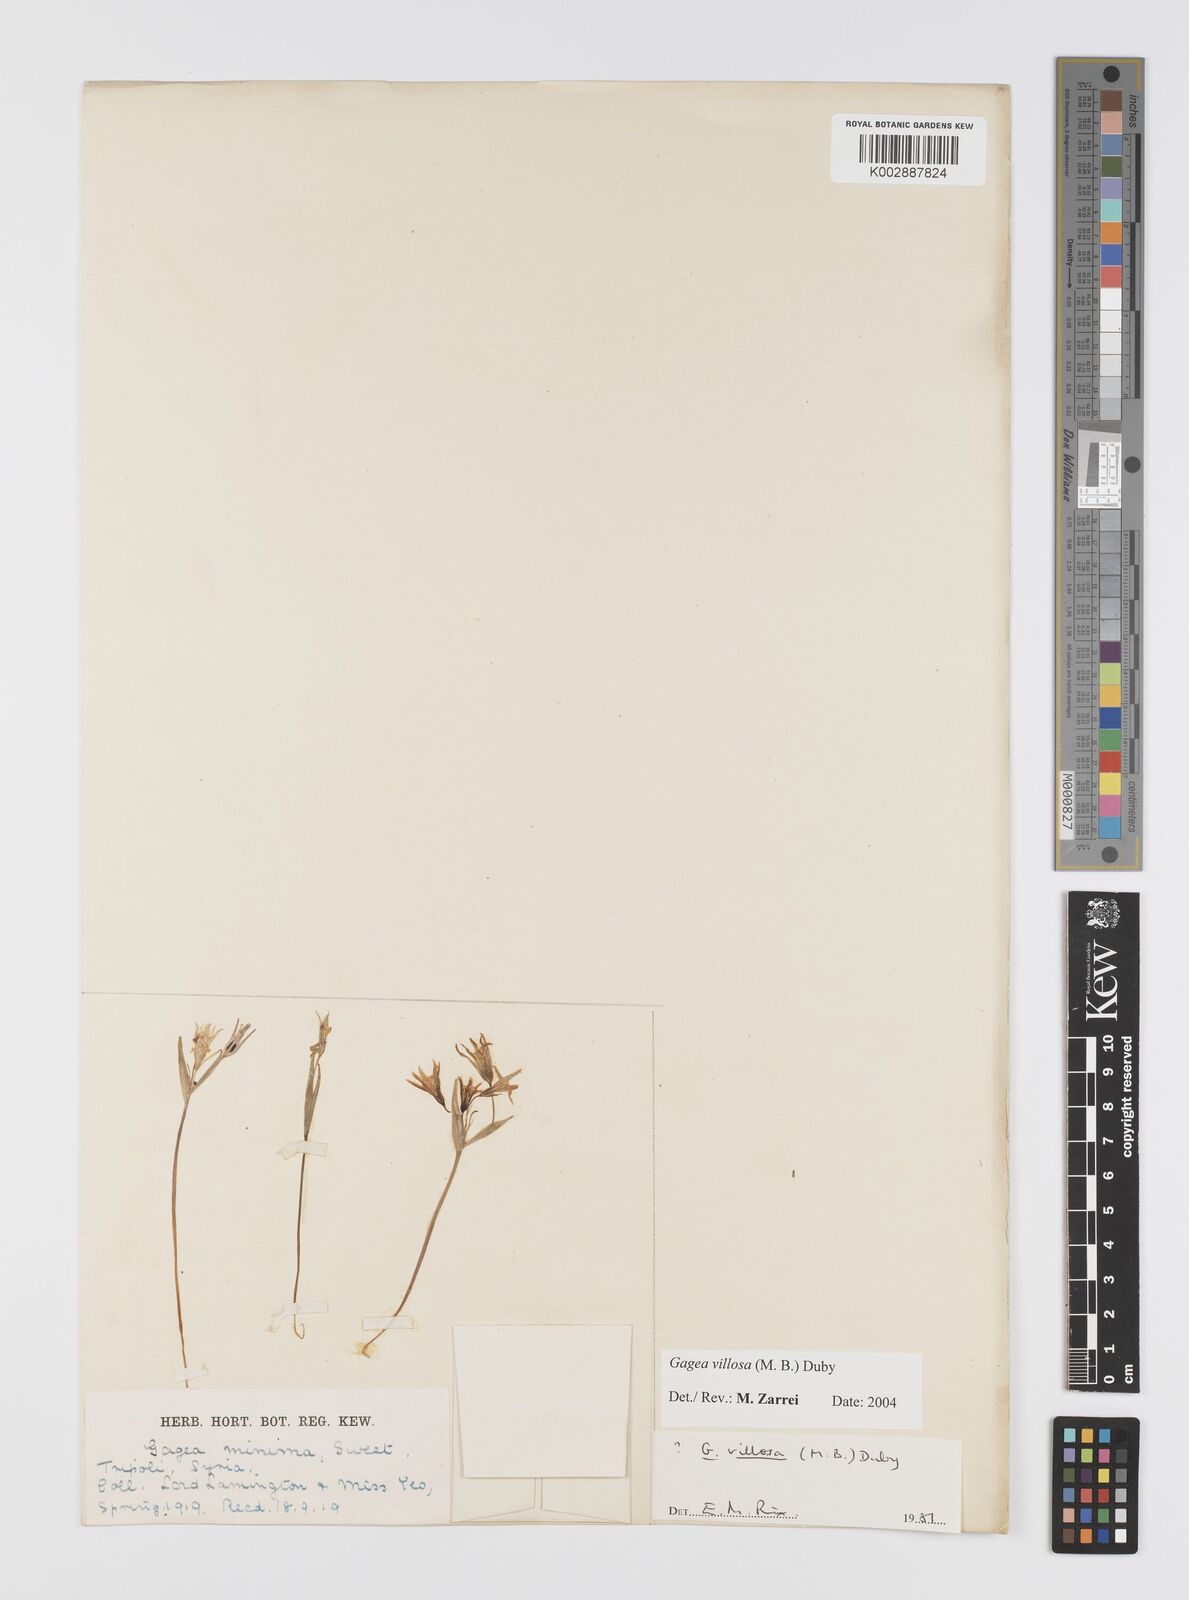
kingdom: Plantae
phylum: Tracheophyta
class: Liliopsida
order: Liliales
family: Liliaceae
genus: Gagea
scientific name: Gagea minima
